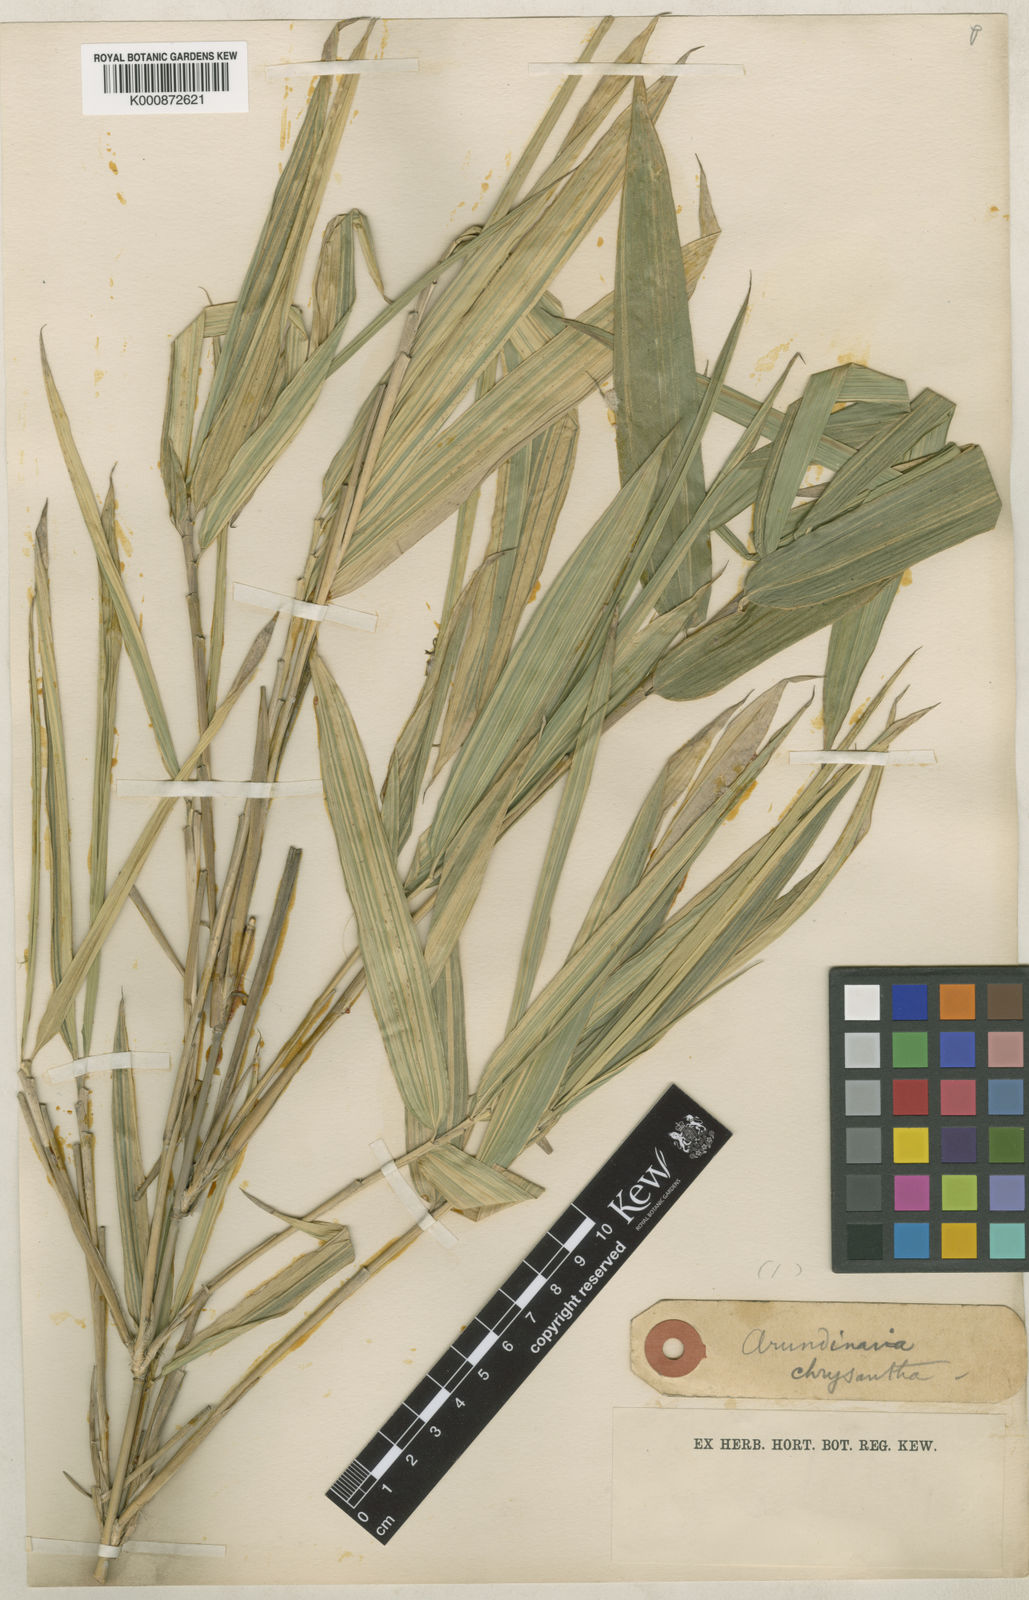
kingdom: Plantae
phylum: Tracheophyta
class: Liliopsida
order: Poales
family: Poaceae
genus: Pleioblastus
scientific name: Pleioblastus argenteostriatus
